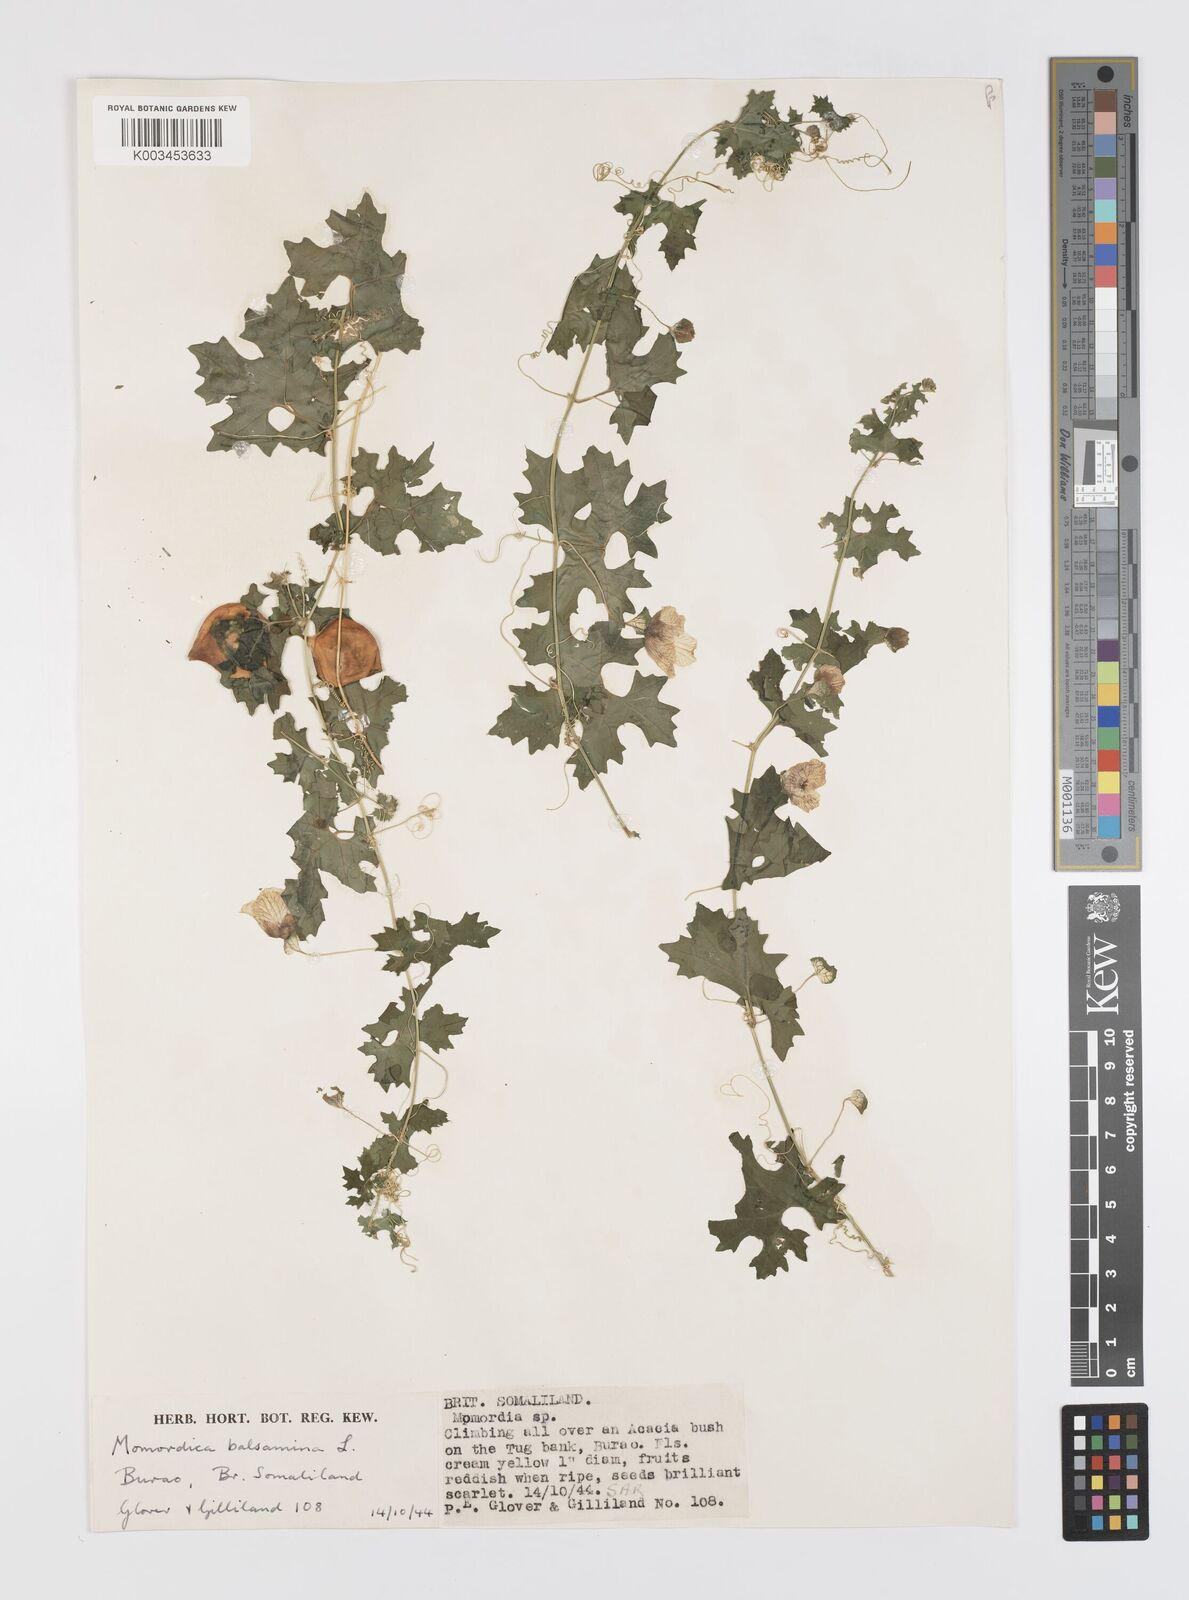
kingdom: Plantae
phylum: Tracheophyta
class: Magnoliopsida
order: Cucurbitales
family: Cucurbitaceae
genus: Momordica
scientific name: Momordica balsamina
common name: Southern balsampear
